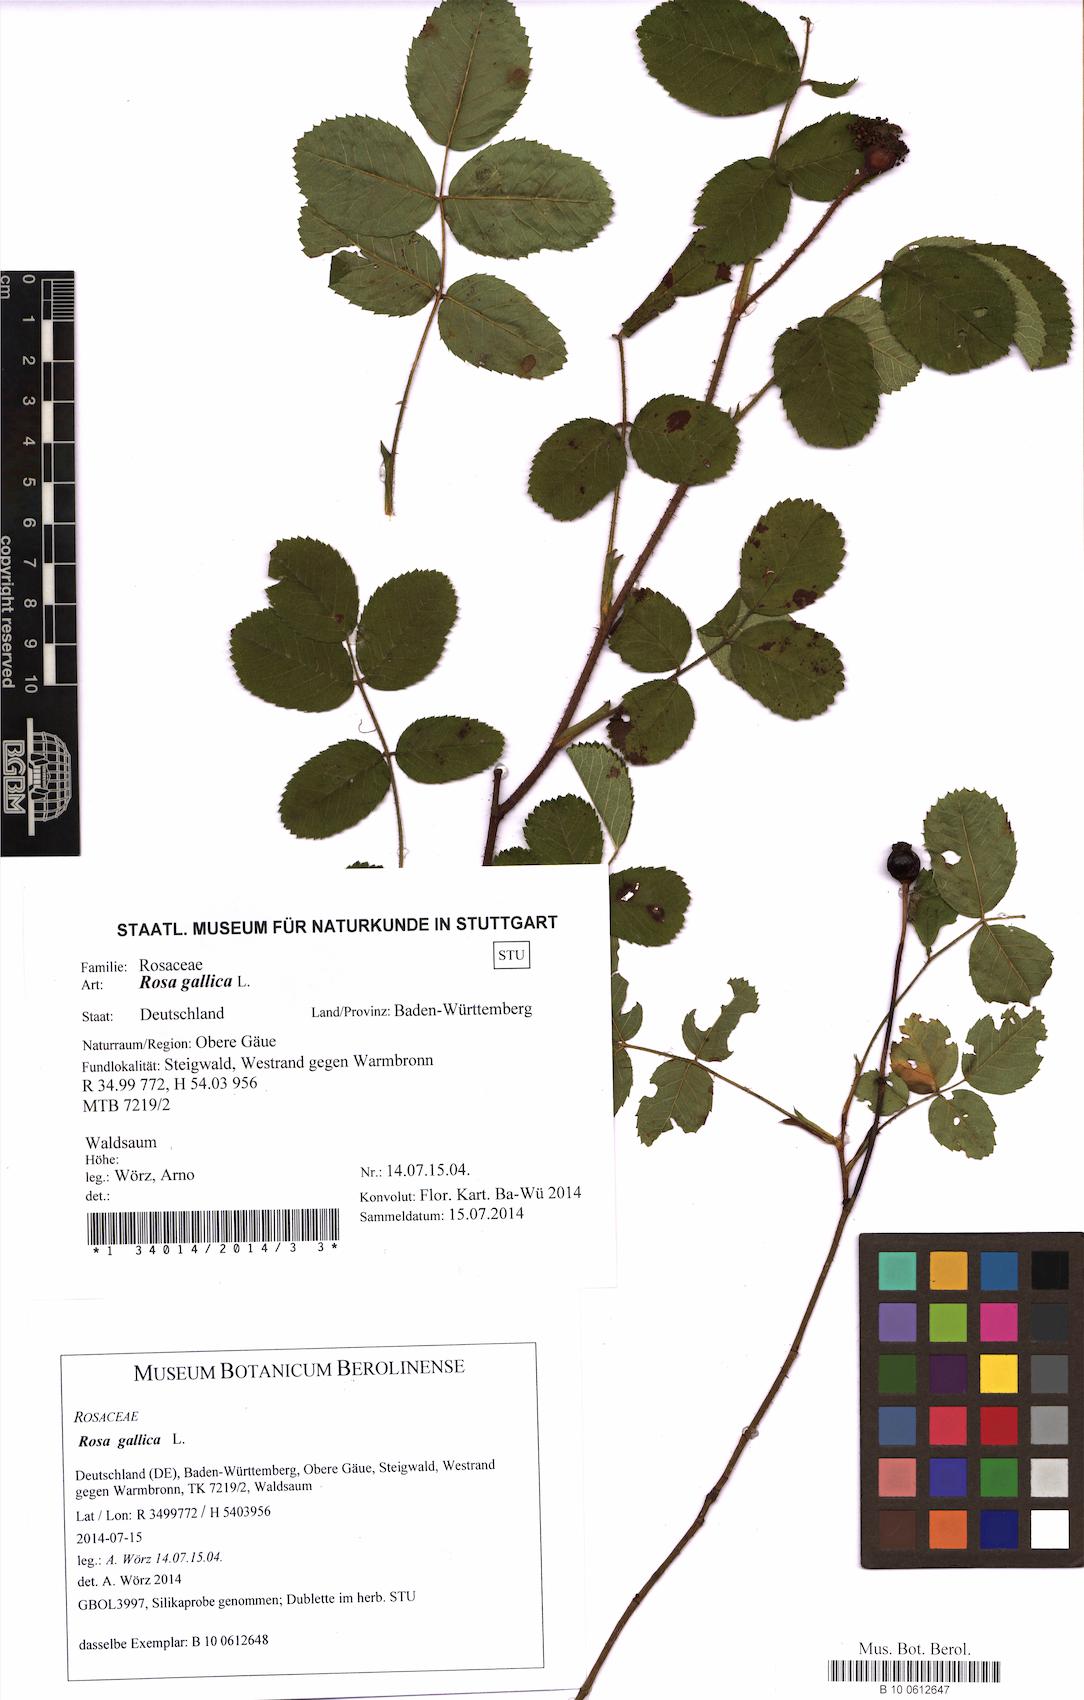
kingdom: Plantae
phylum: Tracheophyta
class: Magnoliopsida
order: Rosales
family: Rosaceae
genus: Rosa
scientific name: Rosa gallica
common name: French rose
